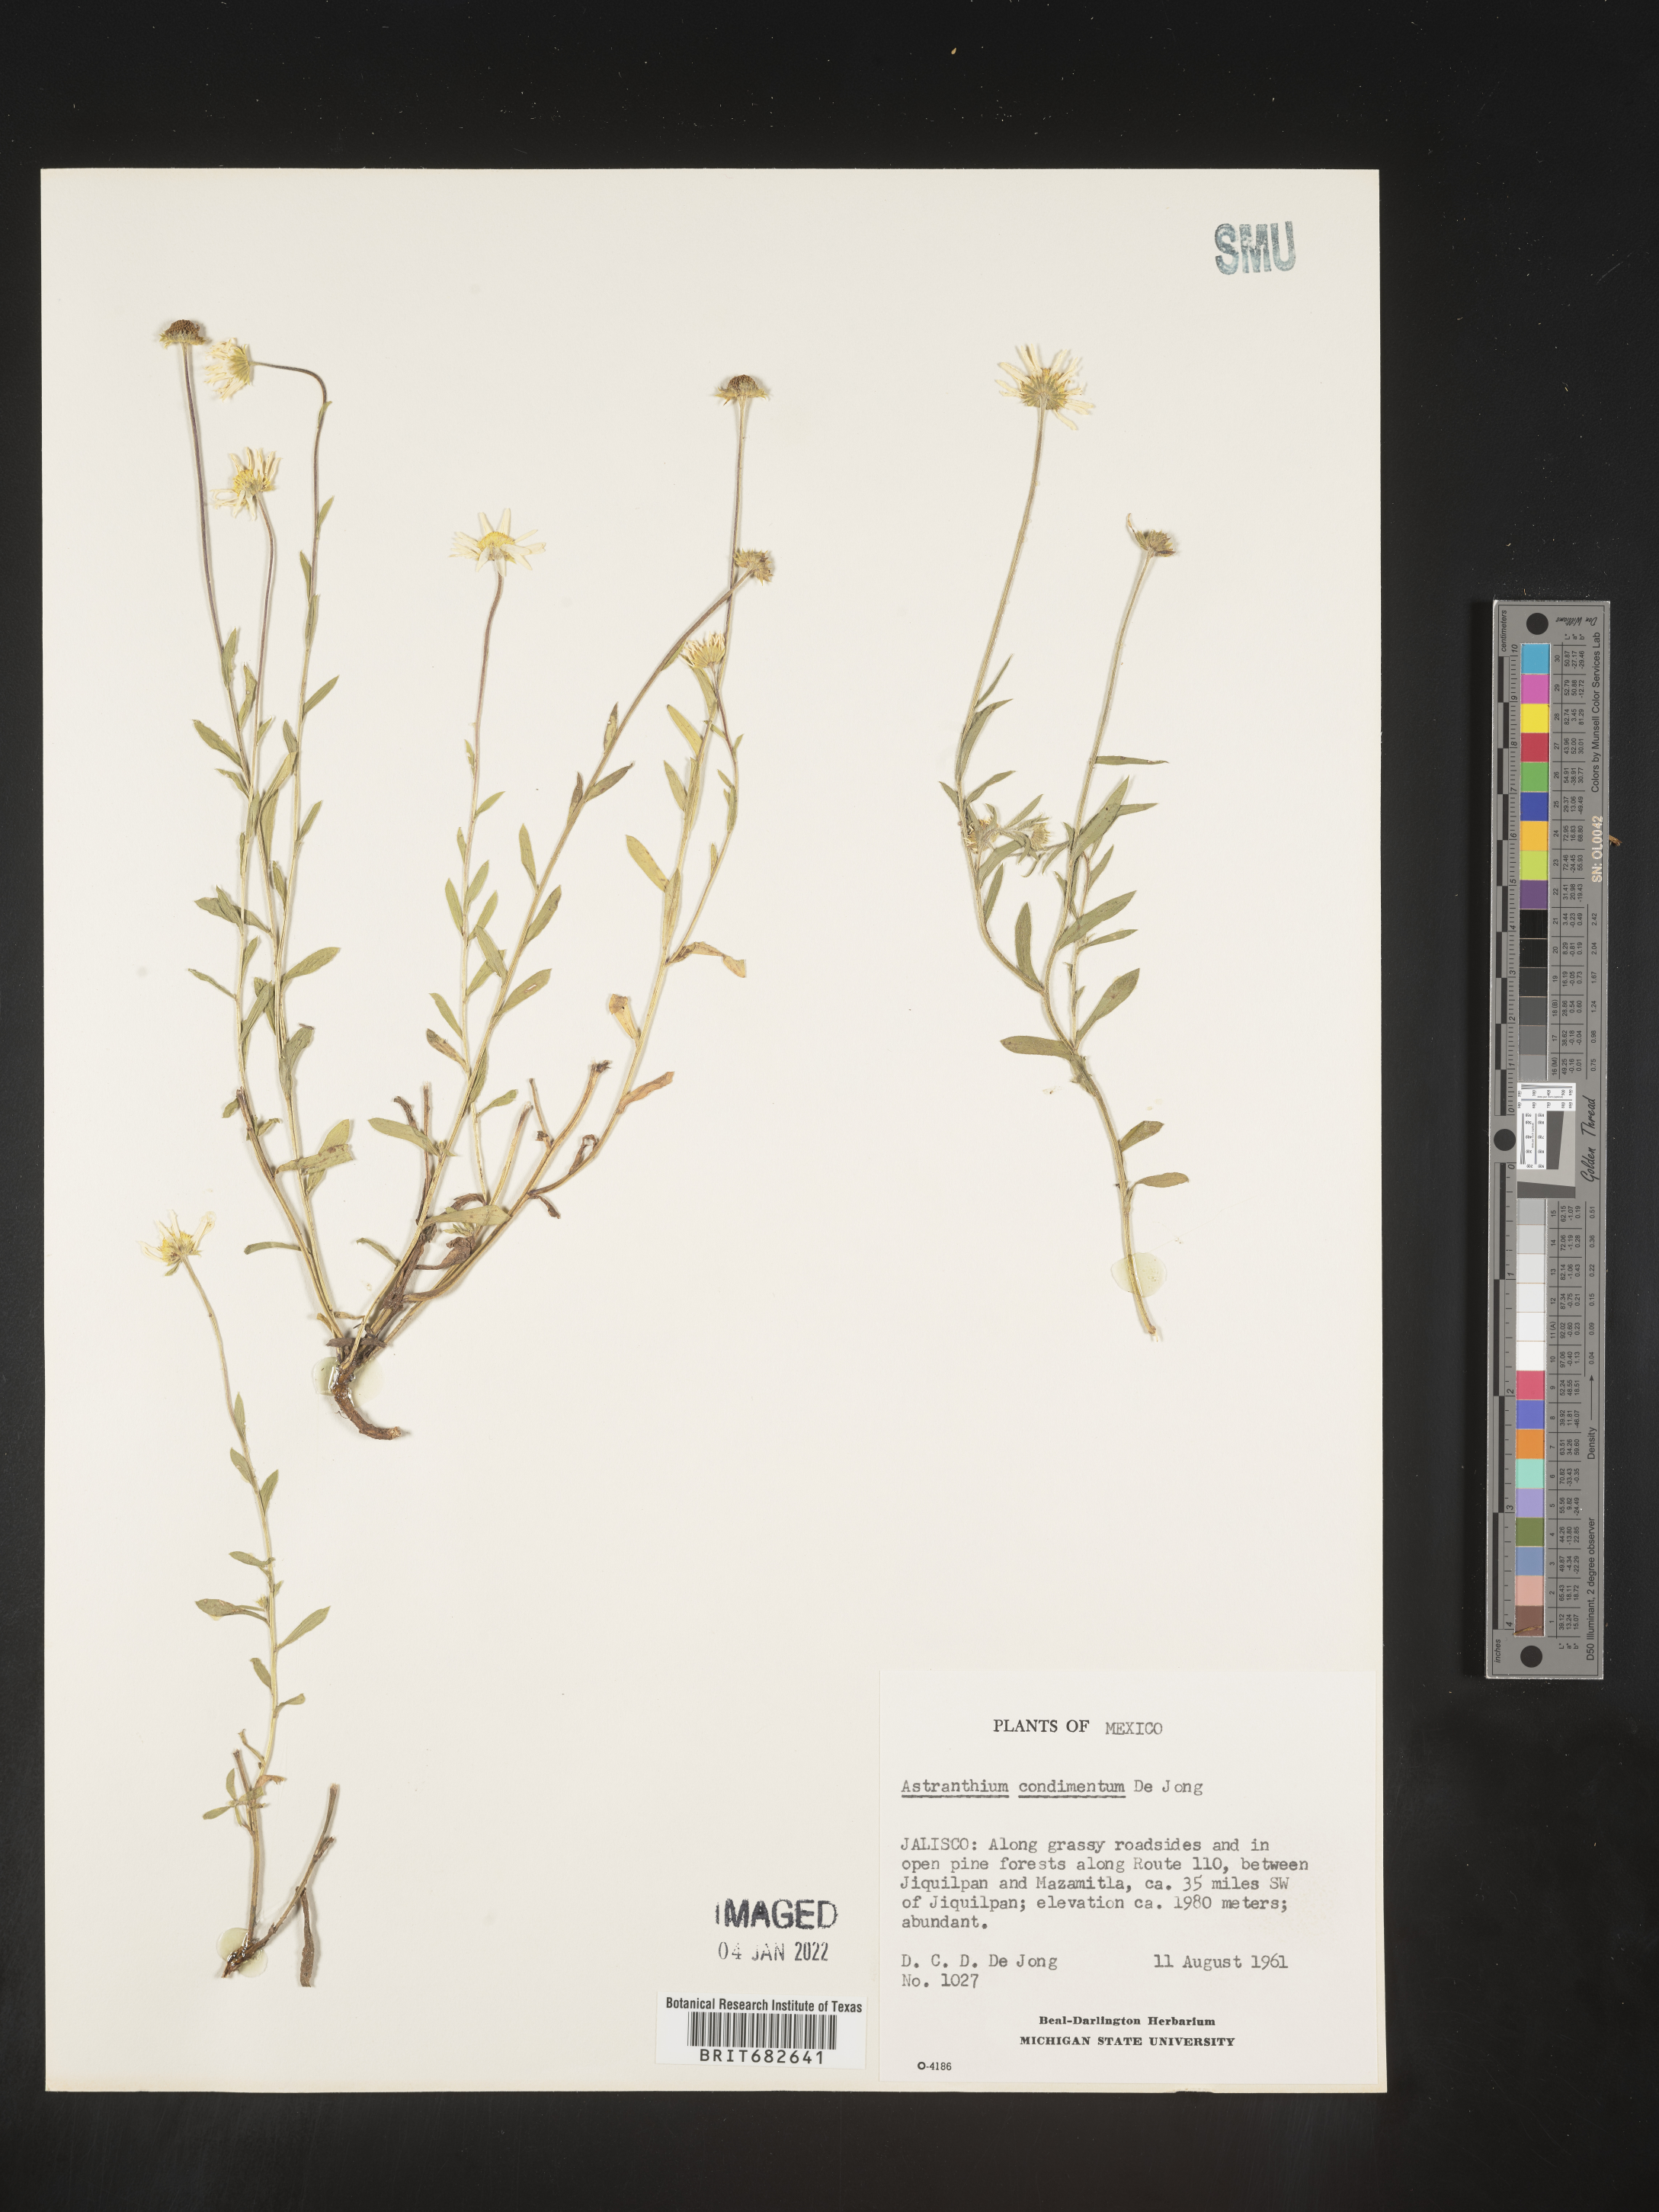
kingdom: Plantae
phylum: Tracheophyta
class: Magnoliopsida
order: Asterales
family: Asteraceae
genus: Astranthium
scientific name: Astranthium
